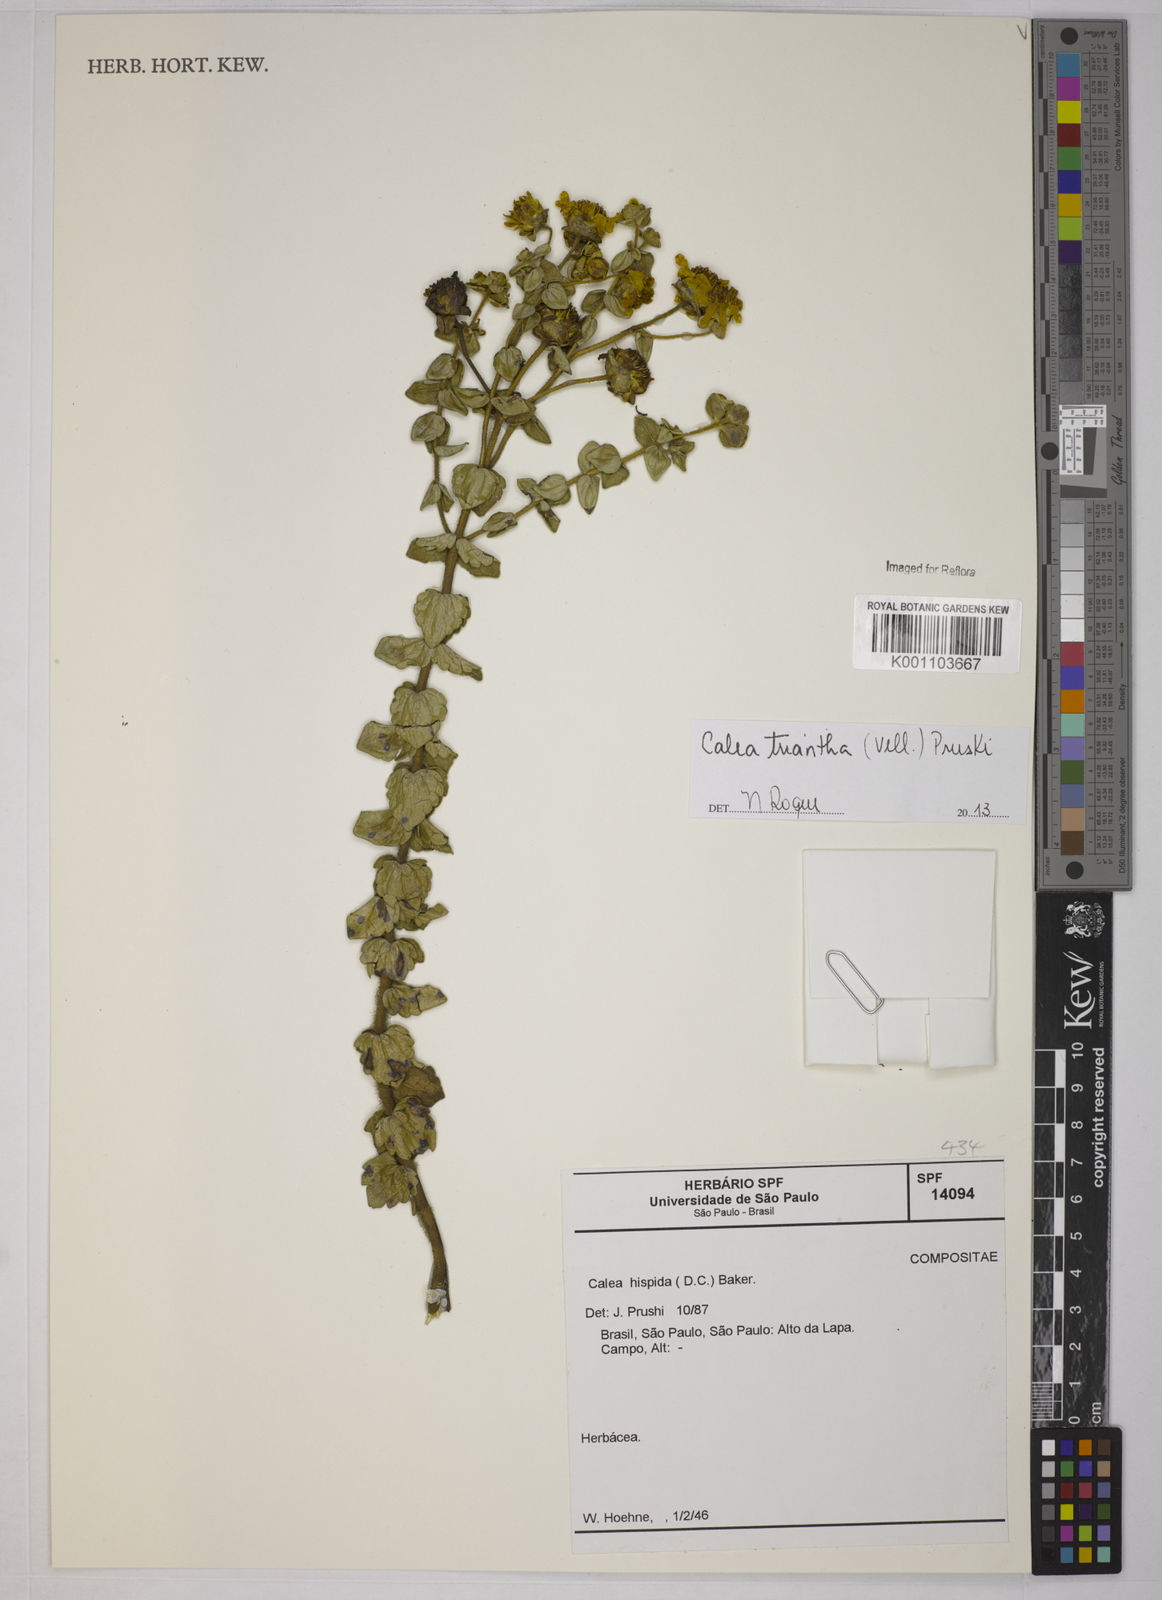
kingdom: Plantae
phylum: Tracheophyta
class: Magnoliopsida
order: Asterales
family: Asteraceae
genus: Calea
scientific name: Calea triantha
